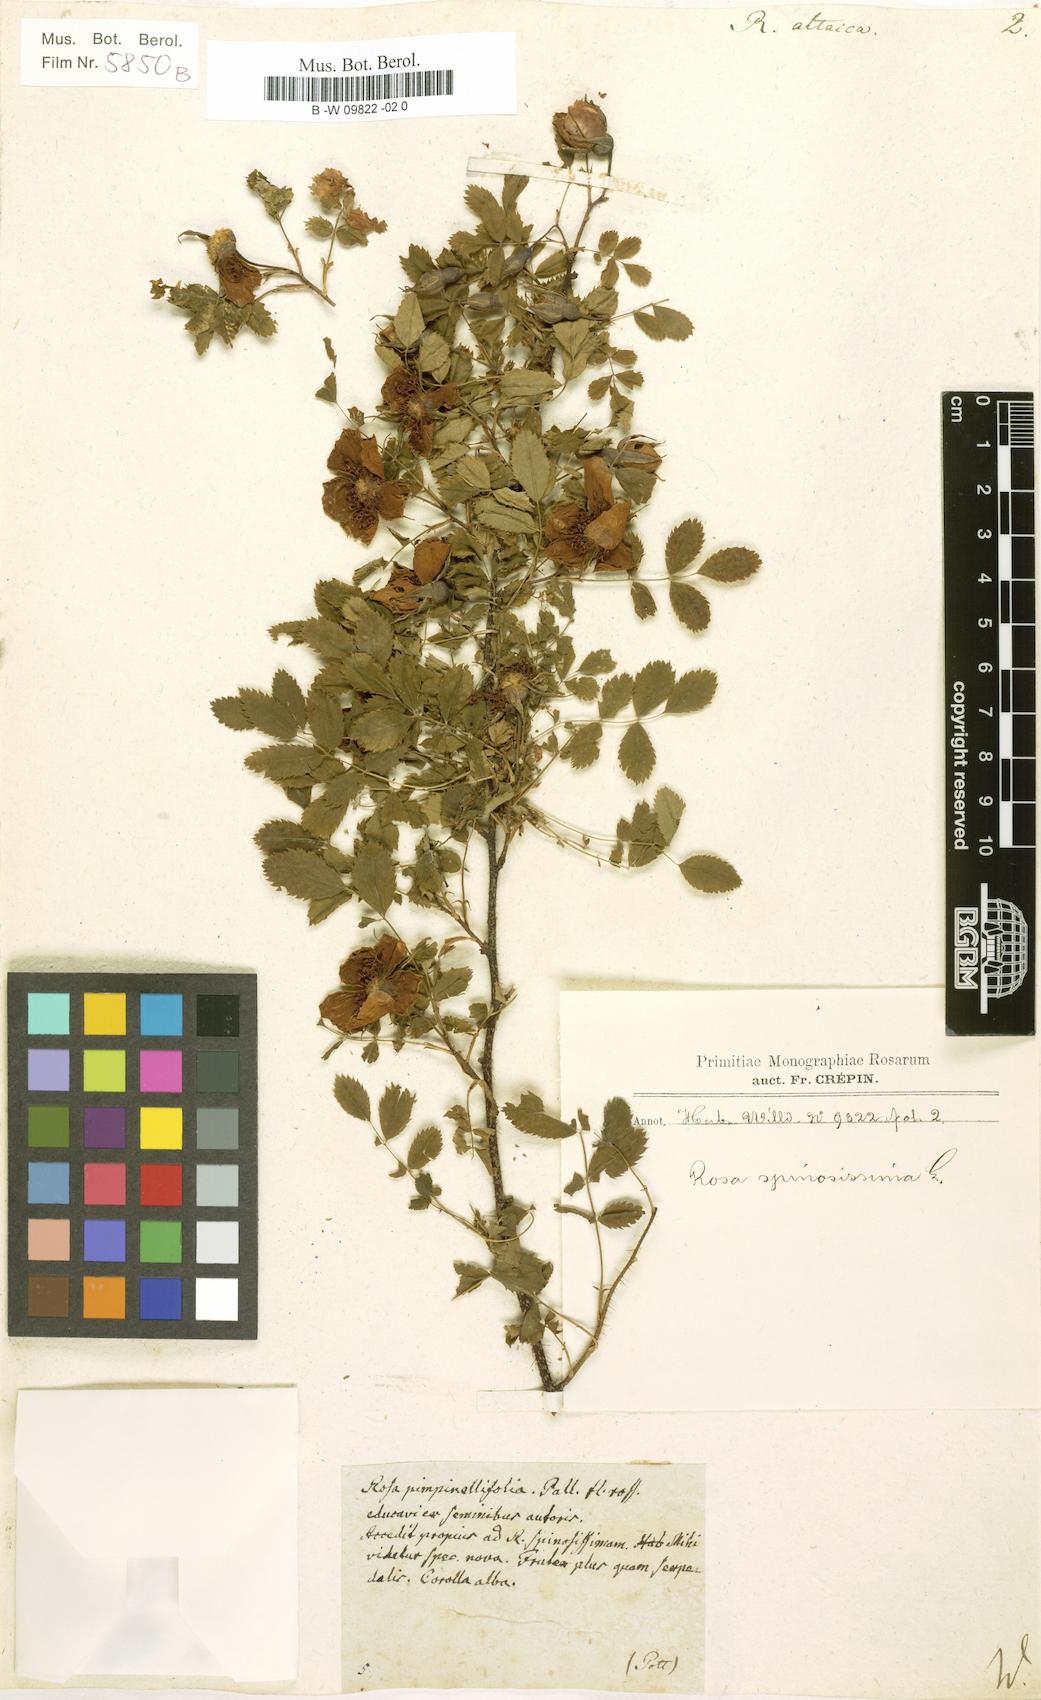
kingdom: Plantae
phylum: Tracheophyta
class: Magnoliopsida
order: Rosales
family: Rosaceae
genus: Rosa
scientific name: Rosa spinosissima
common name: Burnet rose
